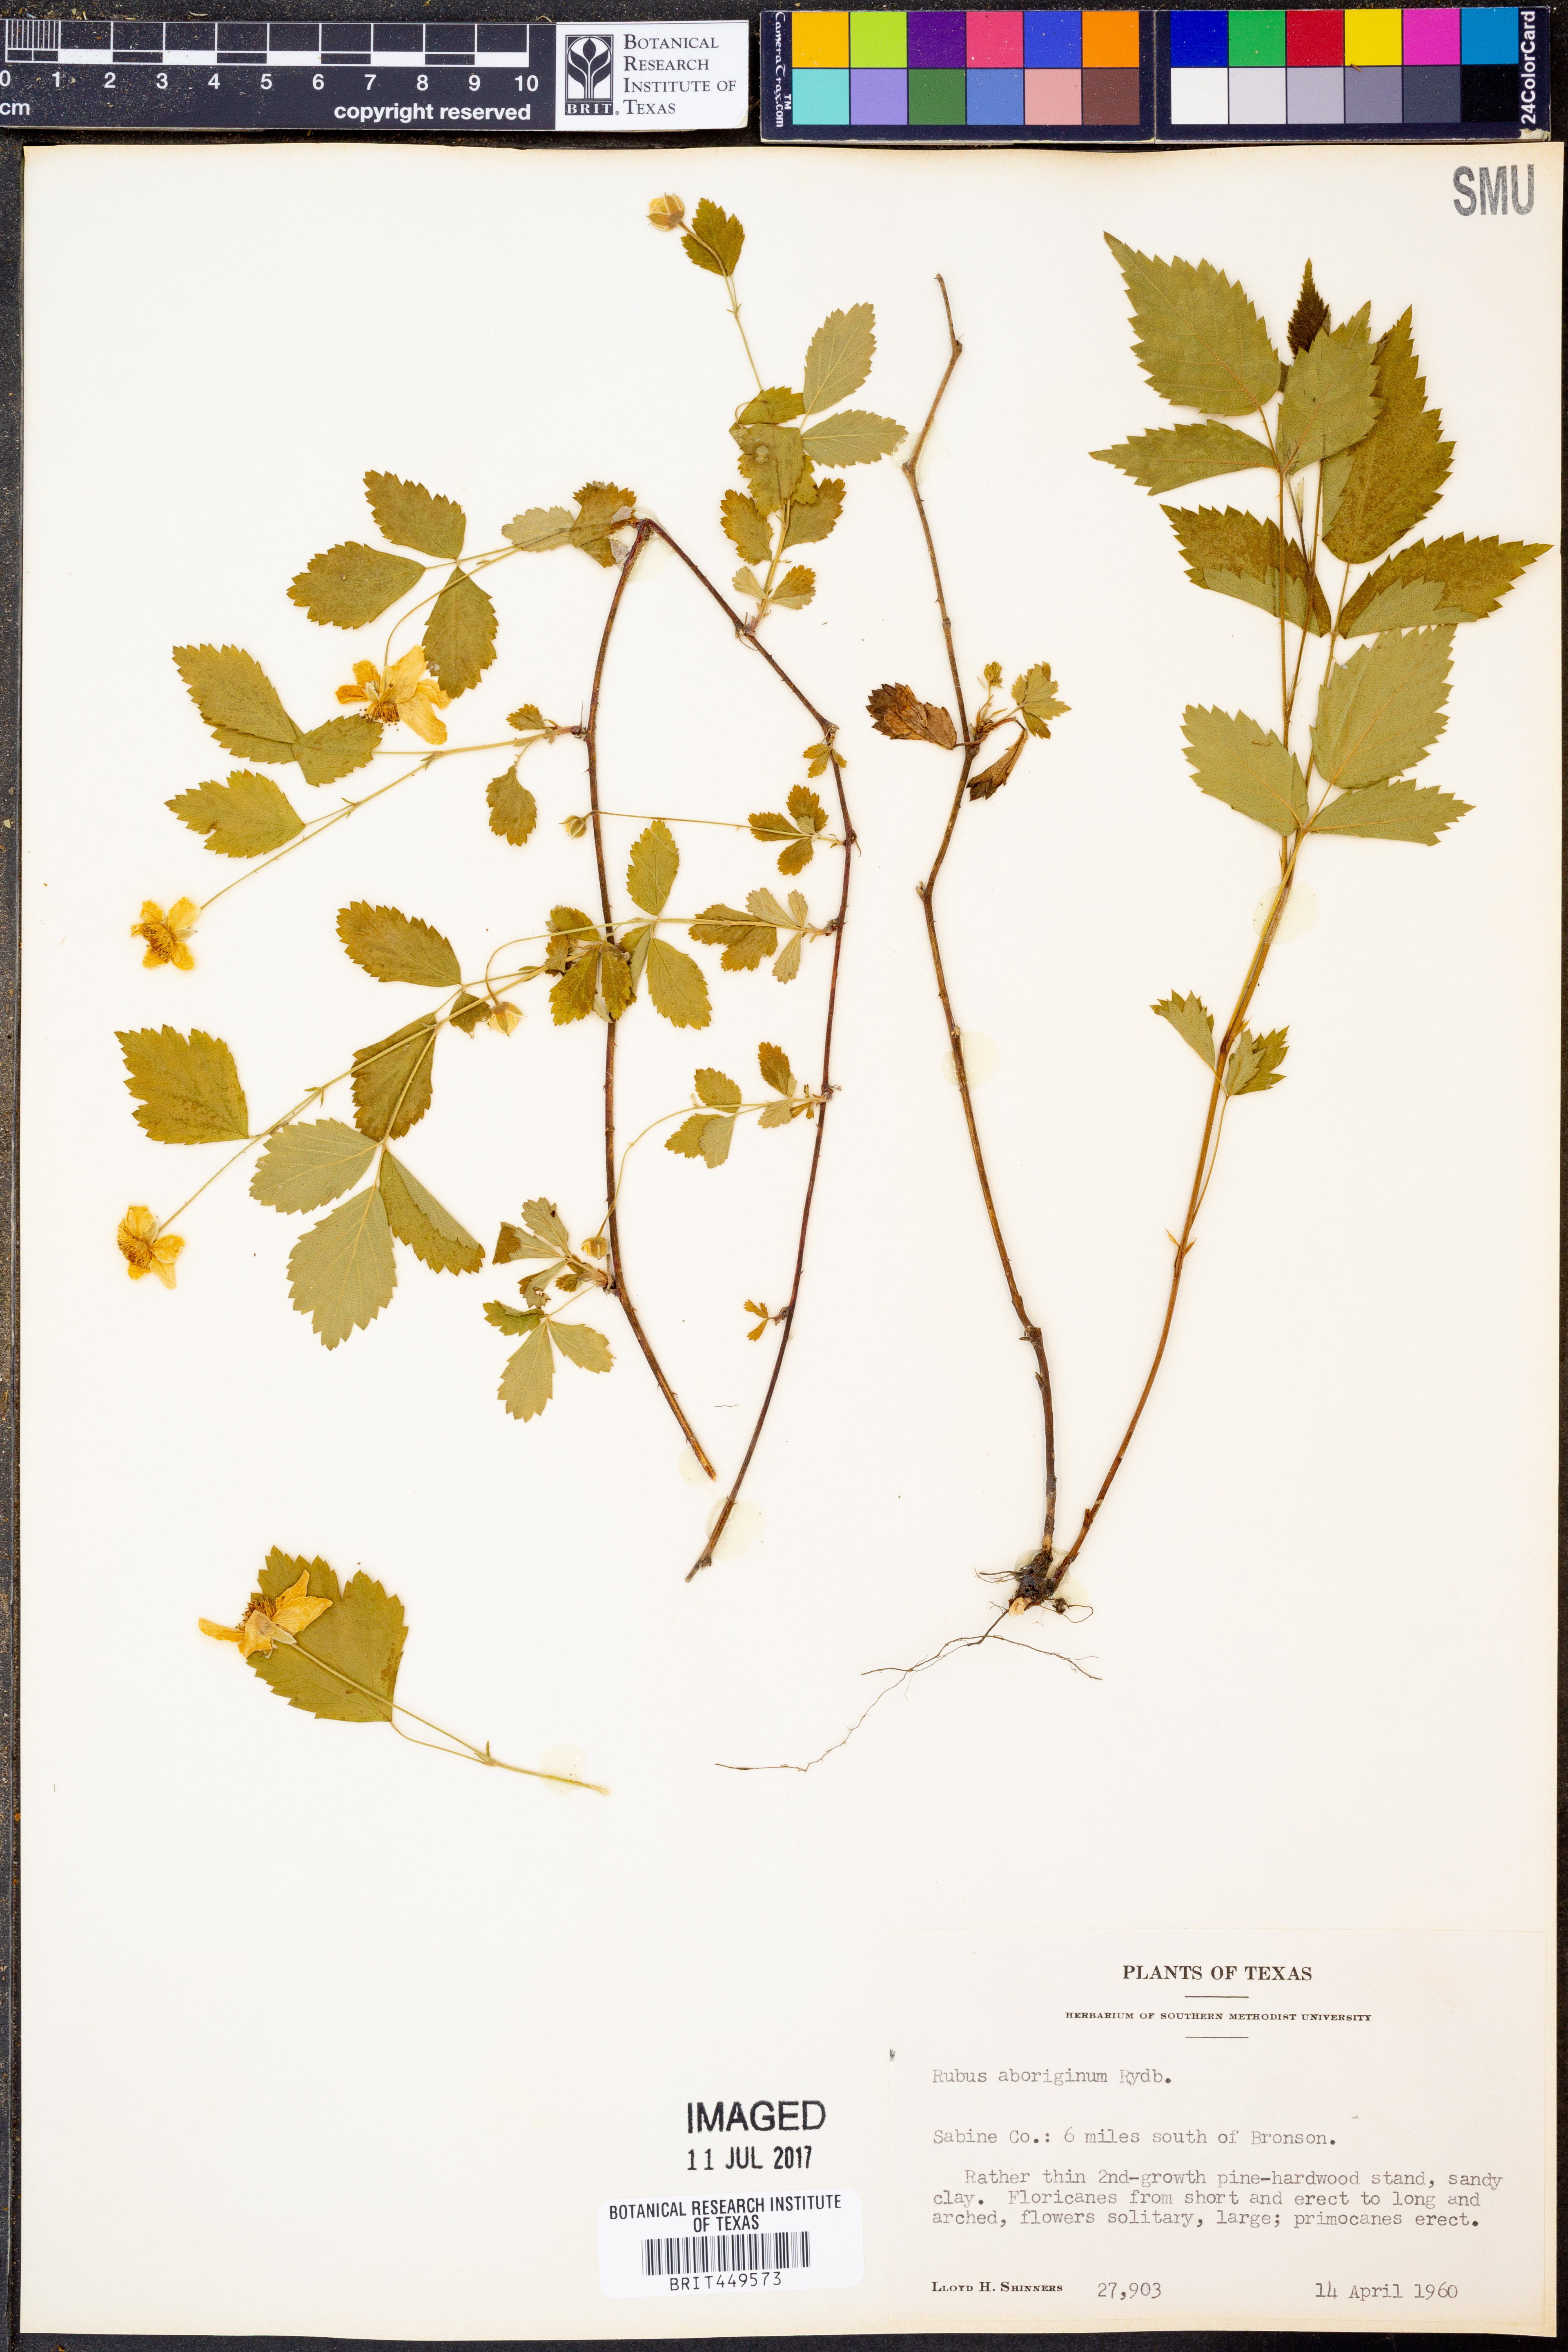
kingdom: Plantae
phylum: Tracheophyta
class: Magnoliopsida
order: Rosales
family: Rosaceae
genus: Rubus
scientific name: Rubus aboriginum
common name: Mayes dewberry
